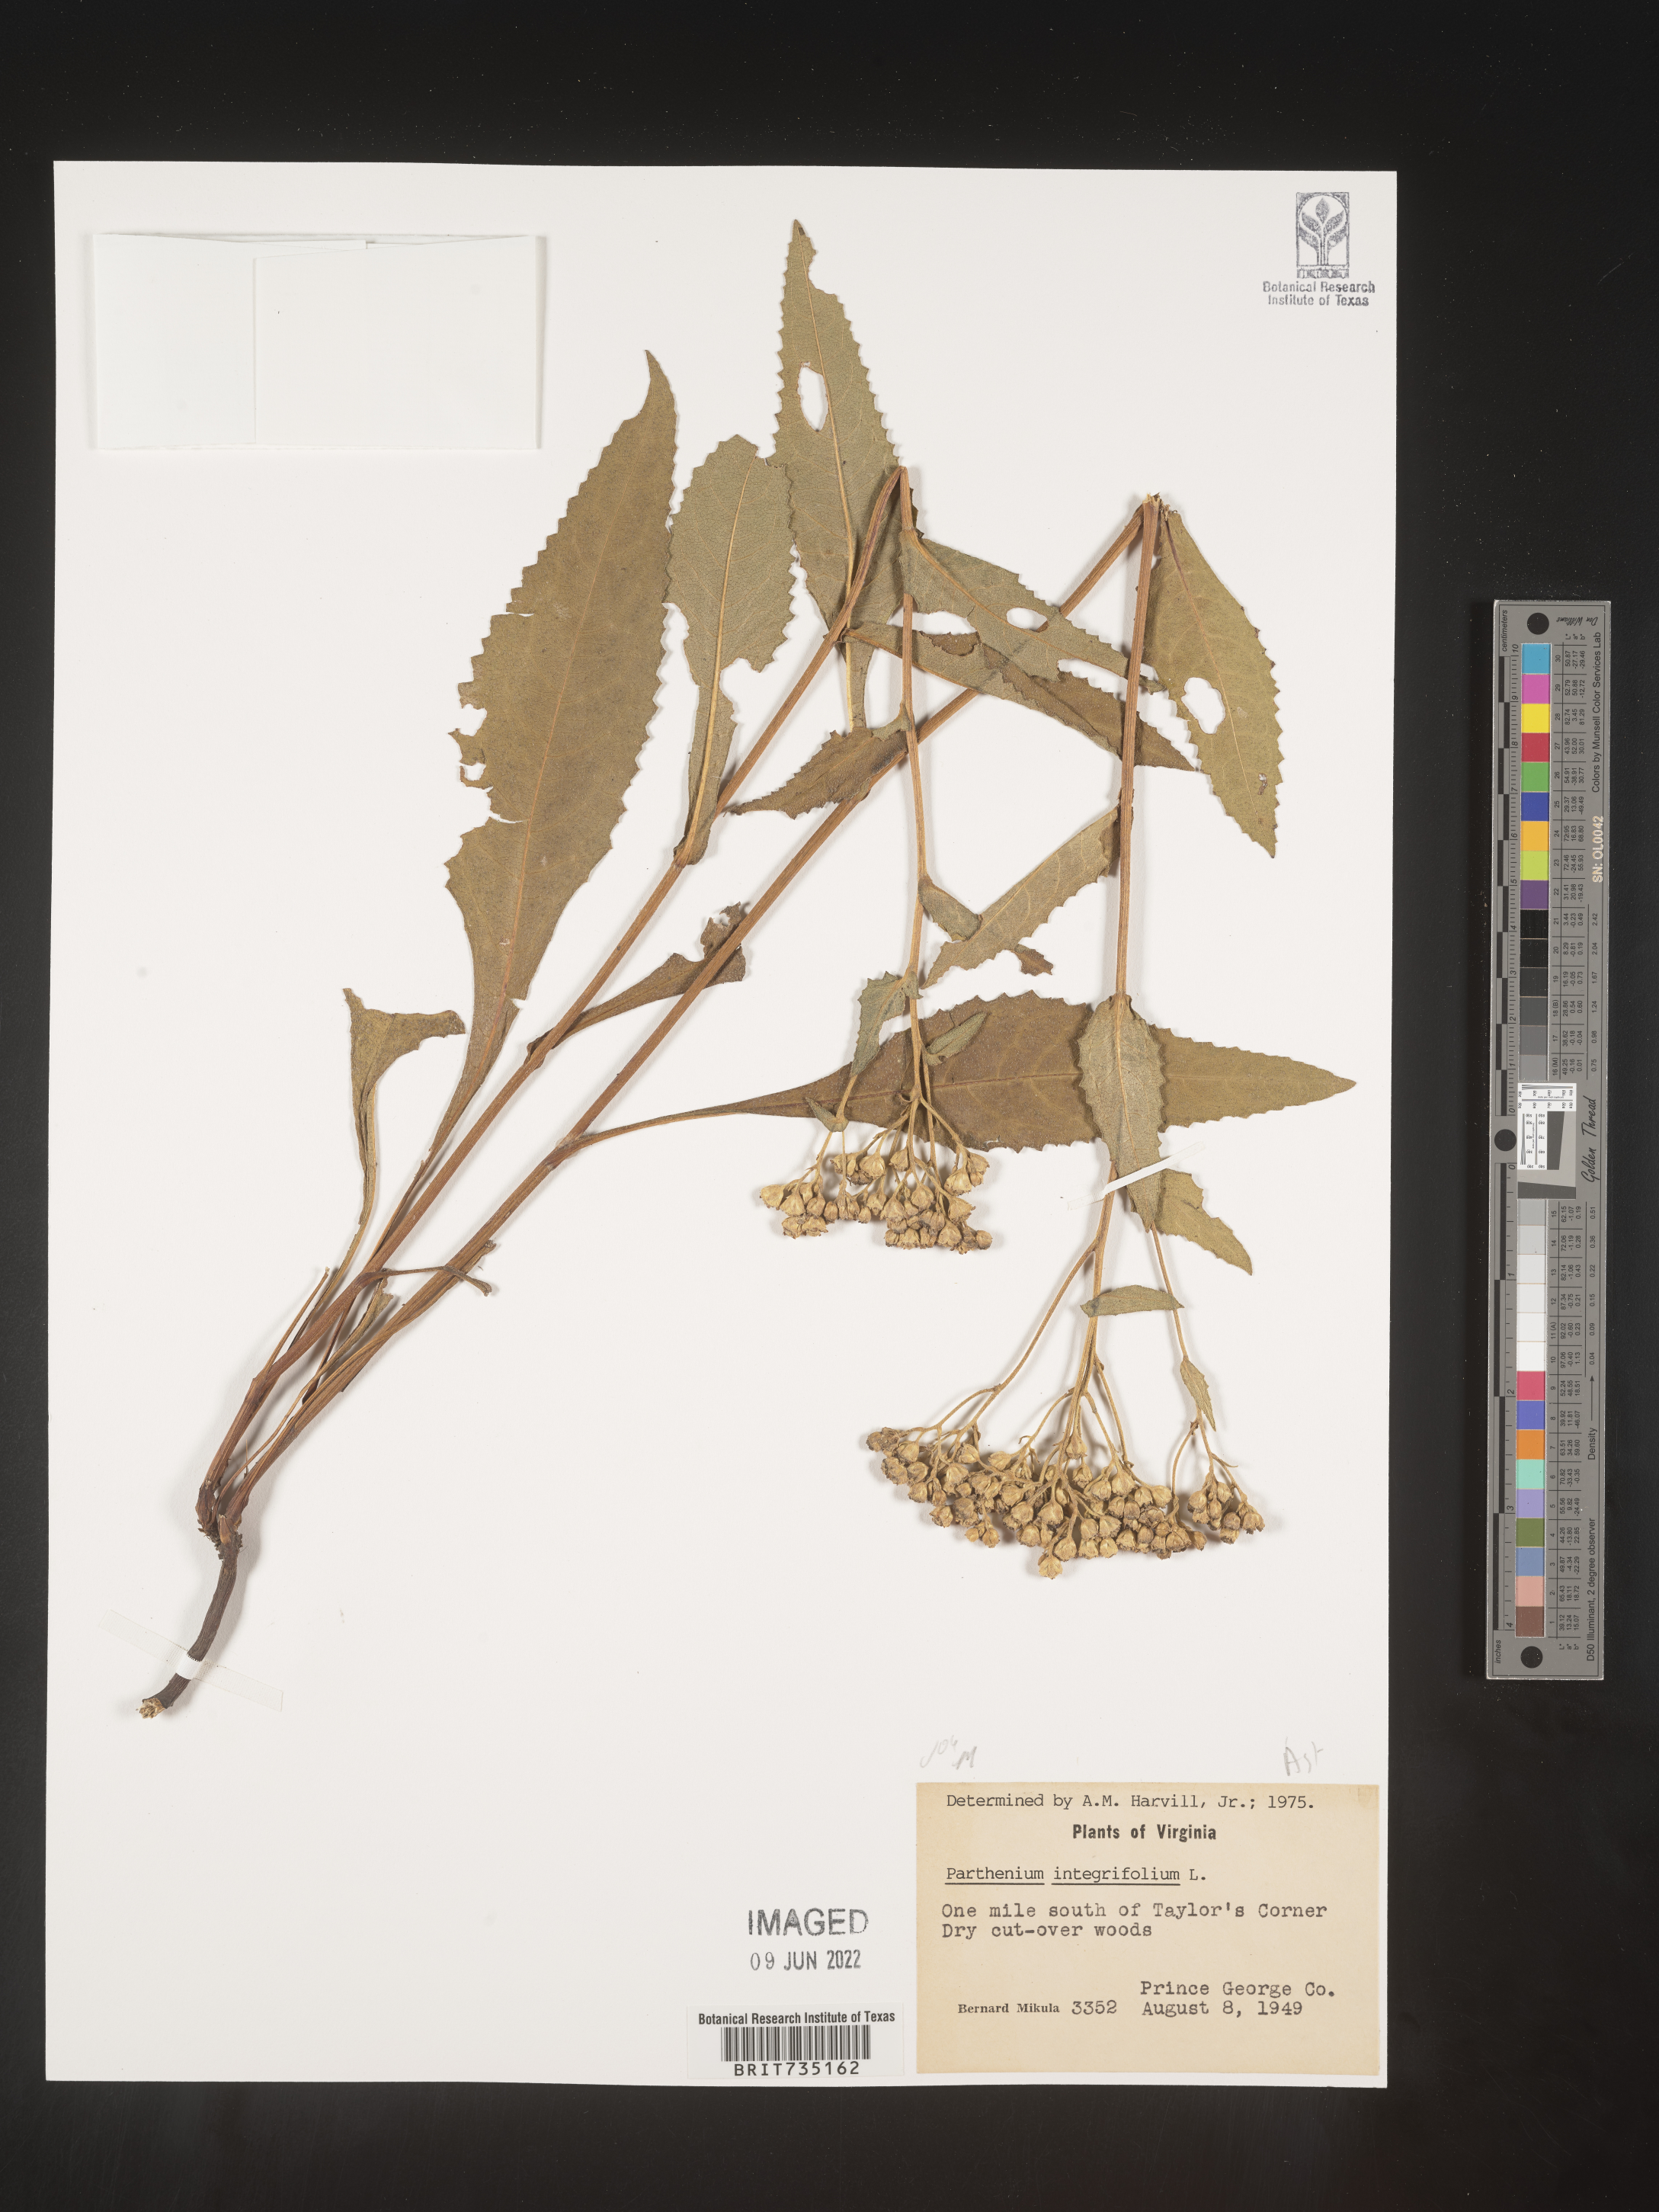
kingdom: Plantae
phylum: Tracheophyta
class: Magnoliopsida
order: Asterales
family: Asteraceae
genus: Parthenium
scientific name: Parthenium integrifolium
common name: American feverfew
